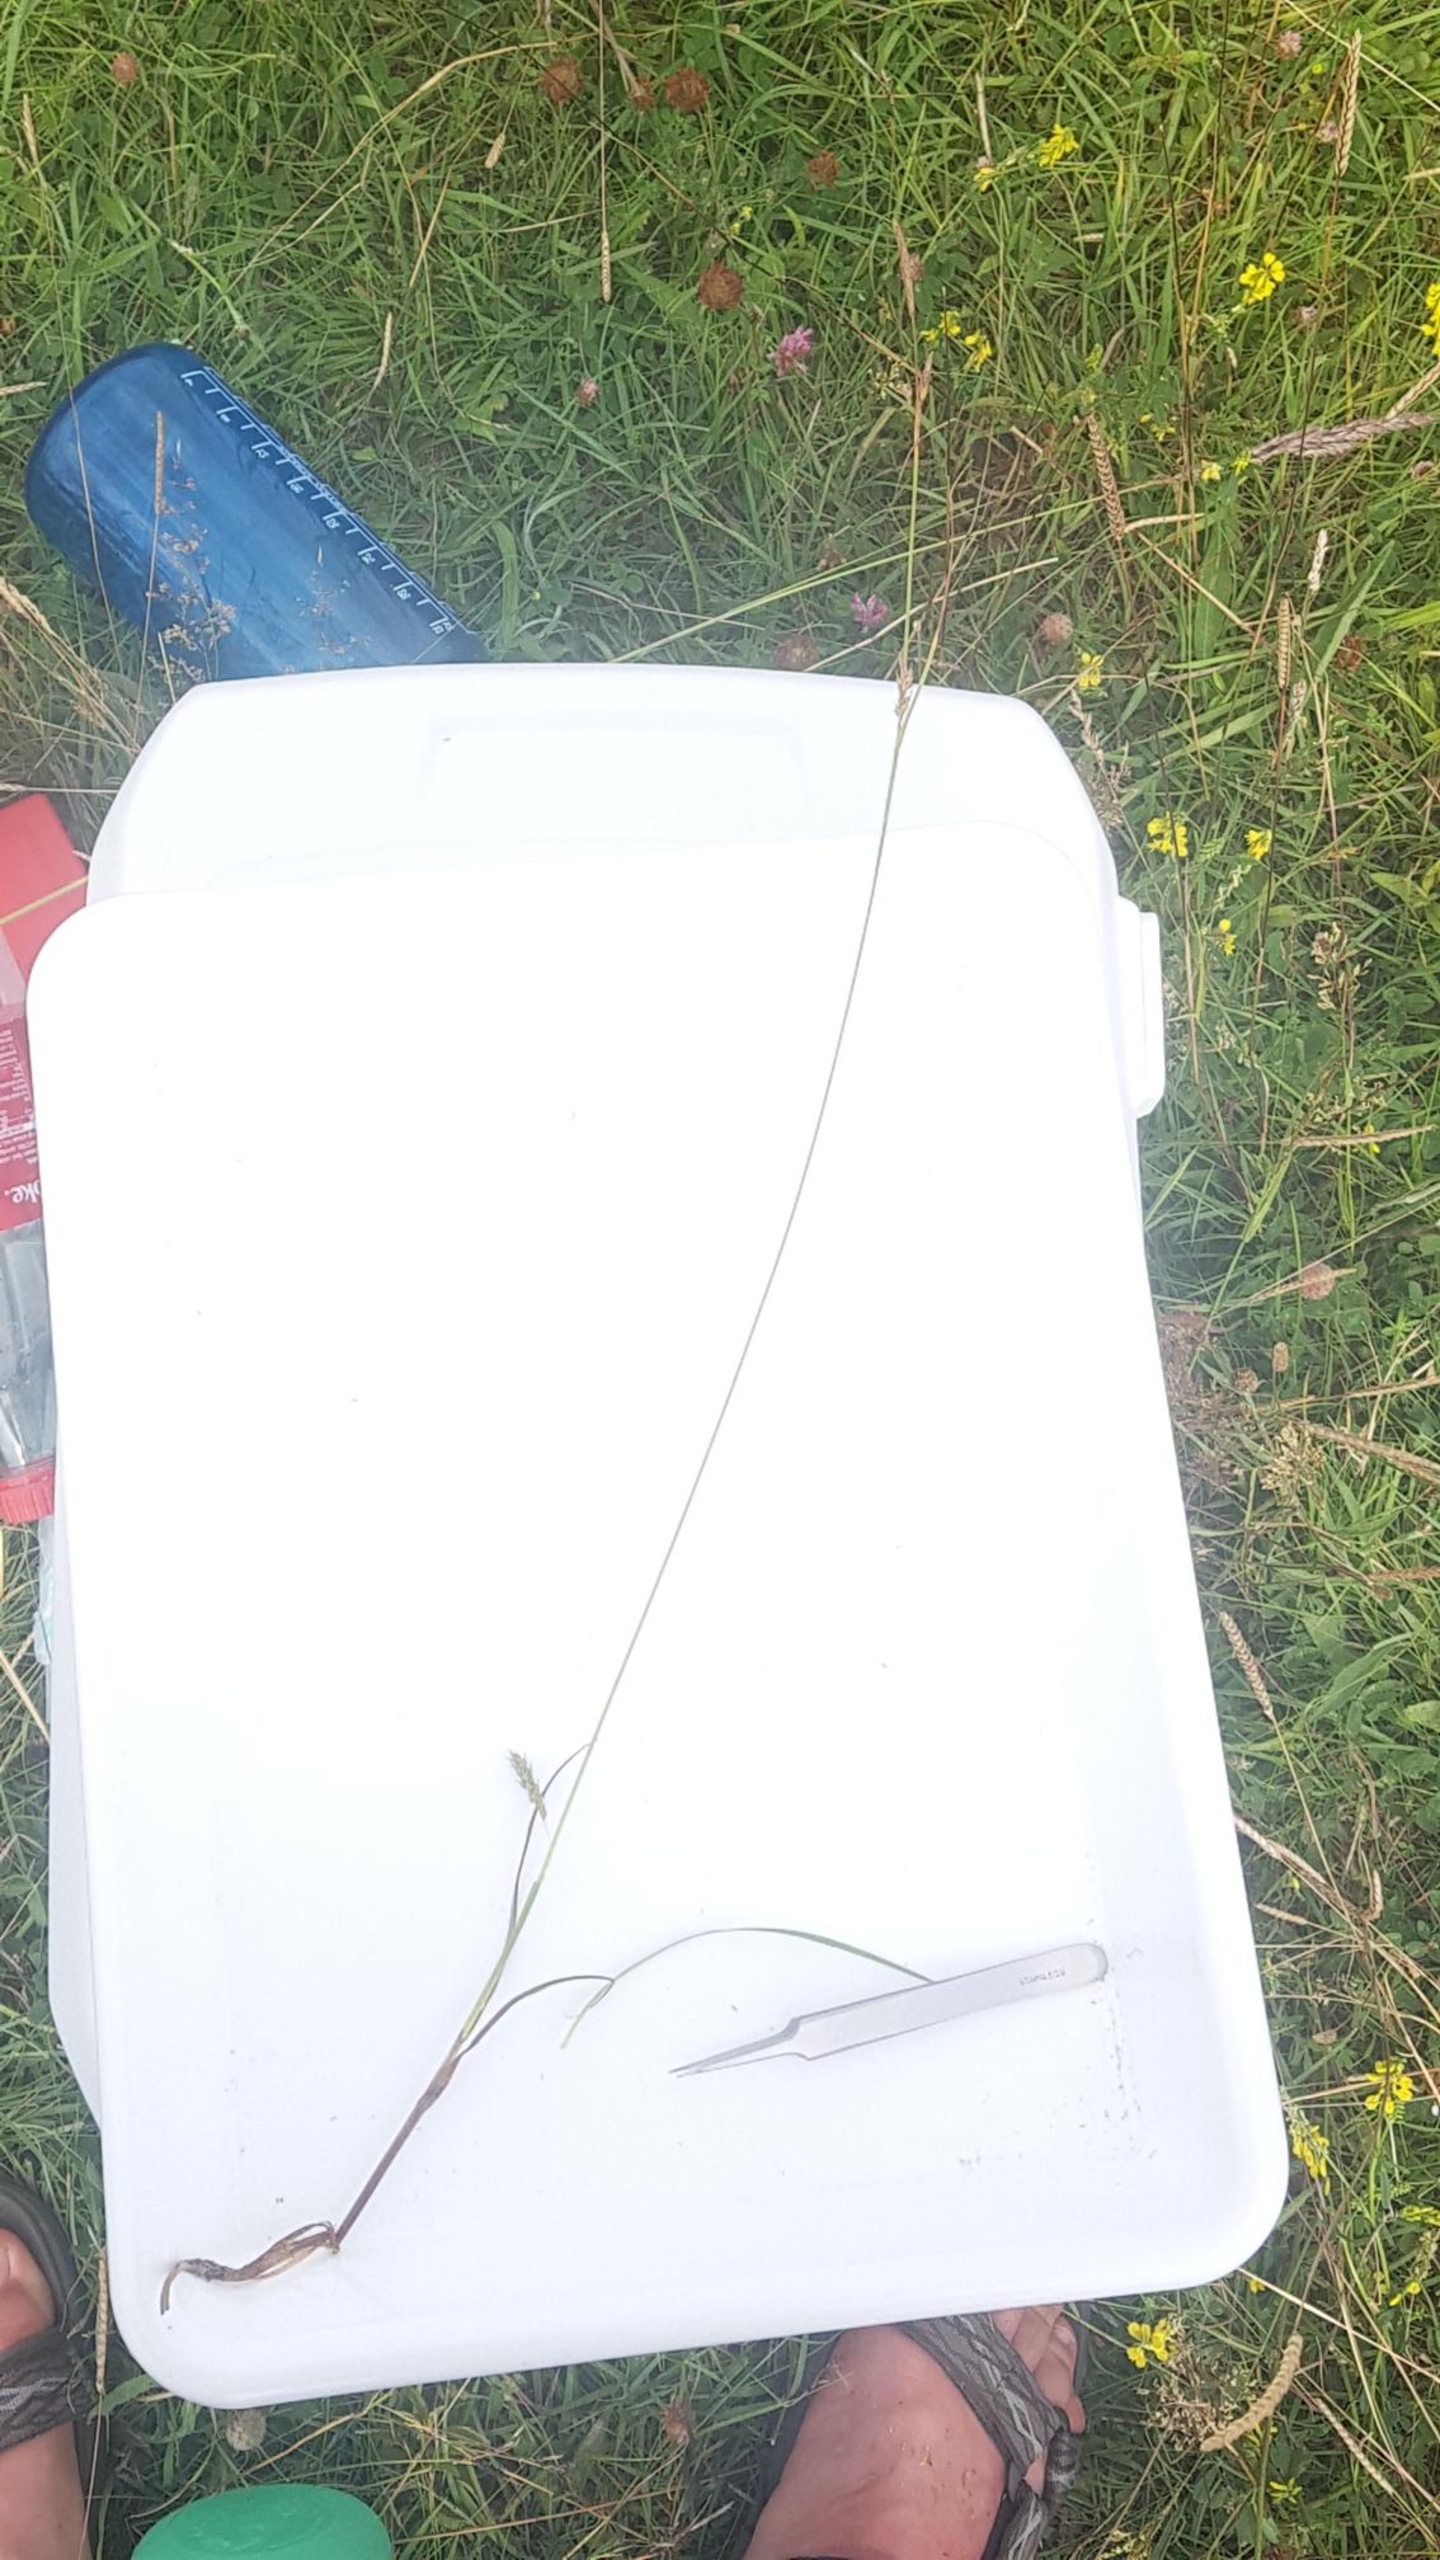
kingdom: Plantae
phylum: Tracheophyta
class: Liliopsida
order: Poales
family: Cyperaceae
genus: Carex
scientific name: Carex distans
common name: Fjernakset star
